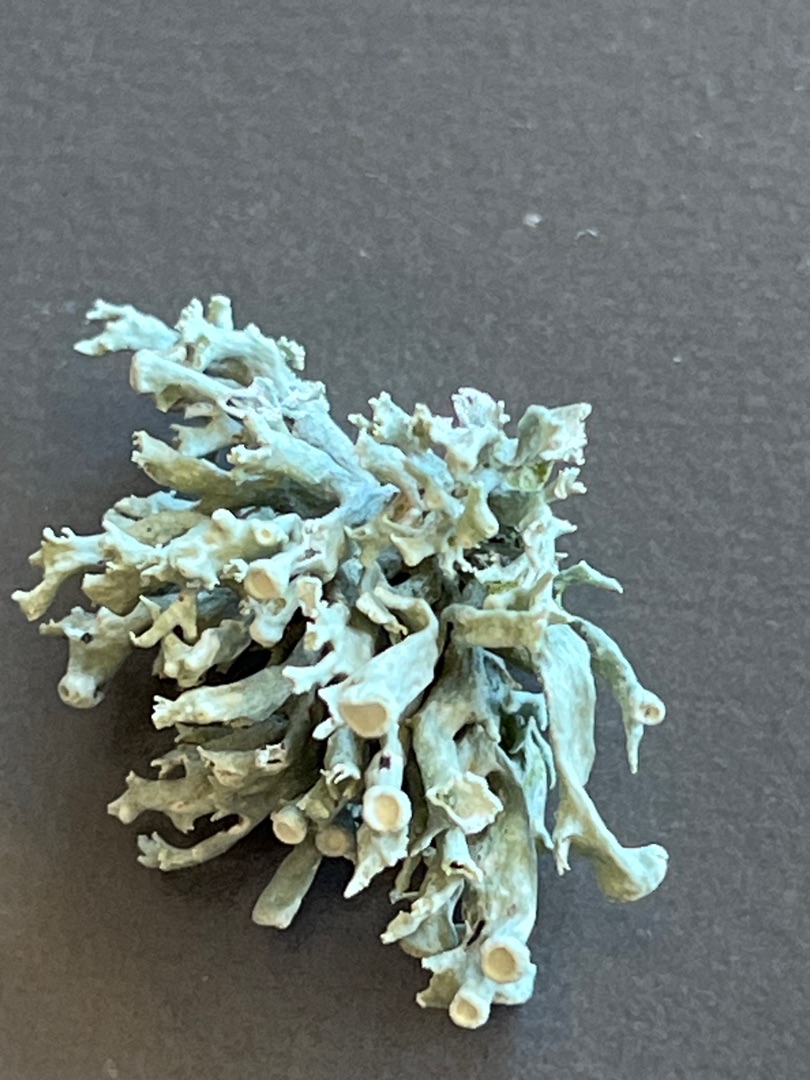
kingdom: Fungi
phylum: Ascomycota
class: Lecanoromycetes
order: Lecanorales
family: Ramalinaceae
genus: Ramalina
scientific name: Ramalina fastigiata
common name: Tue-grenlav
